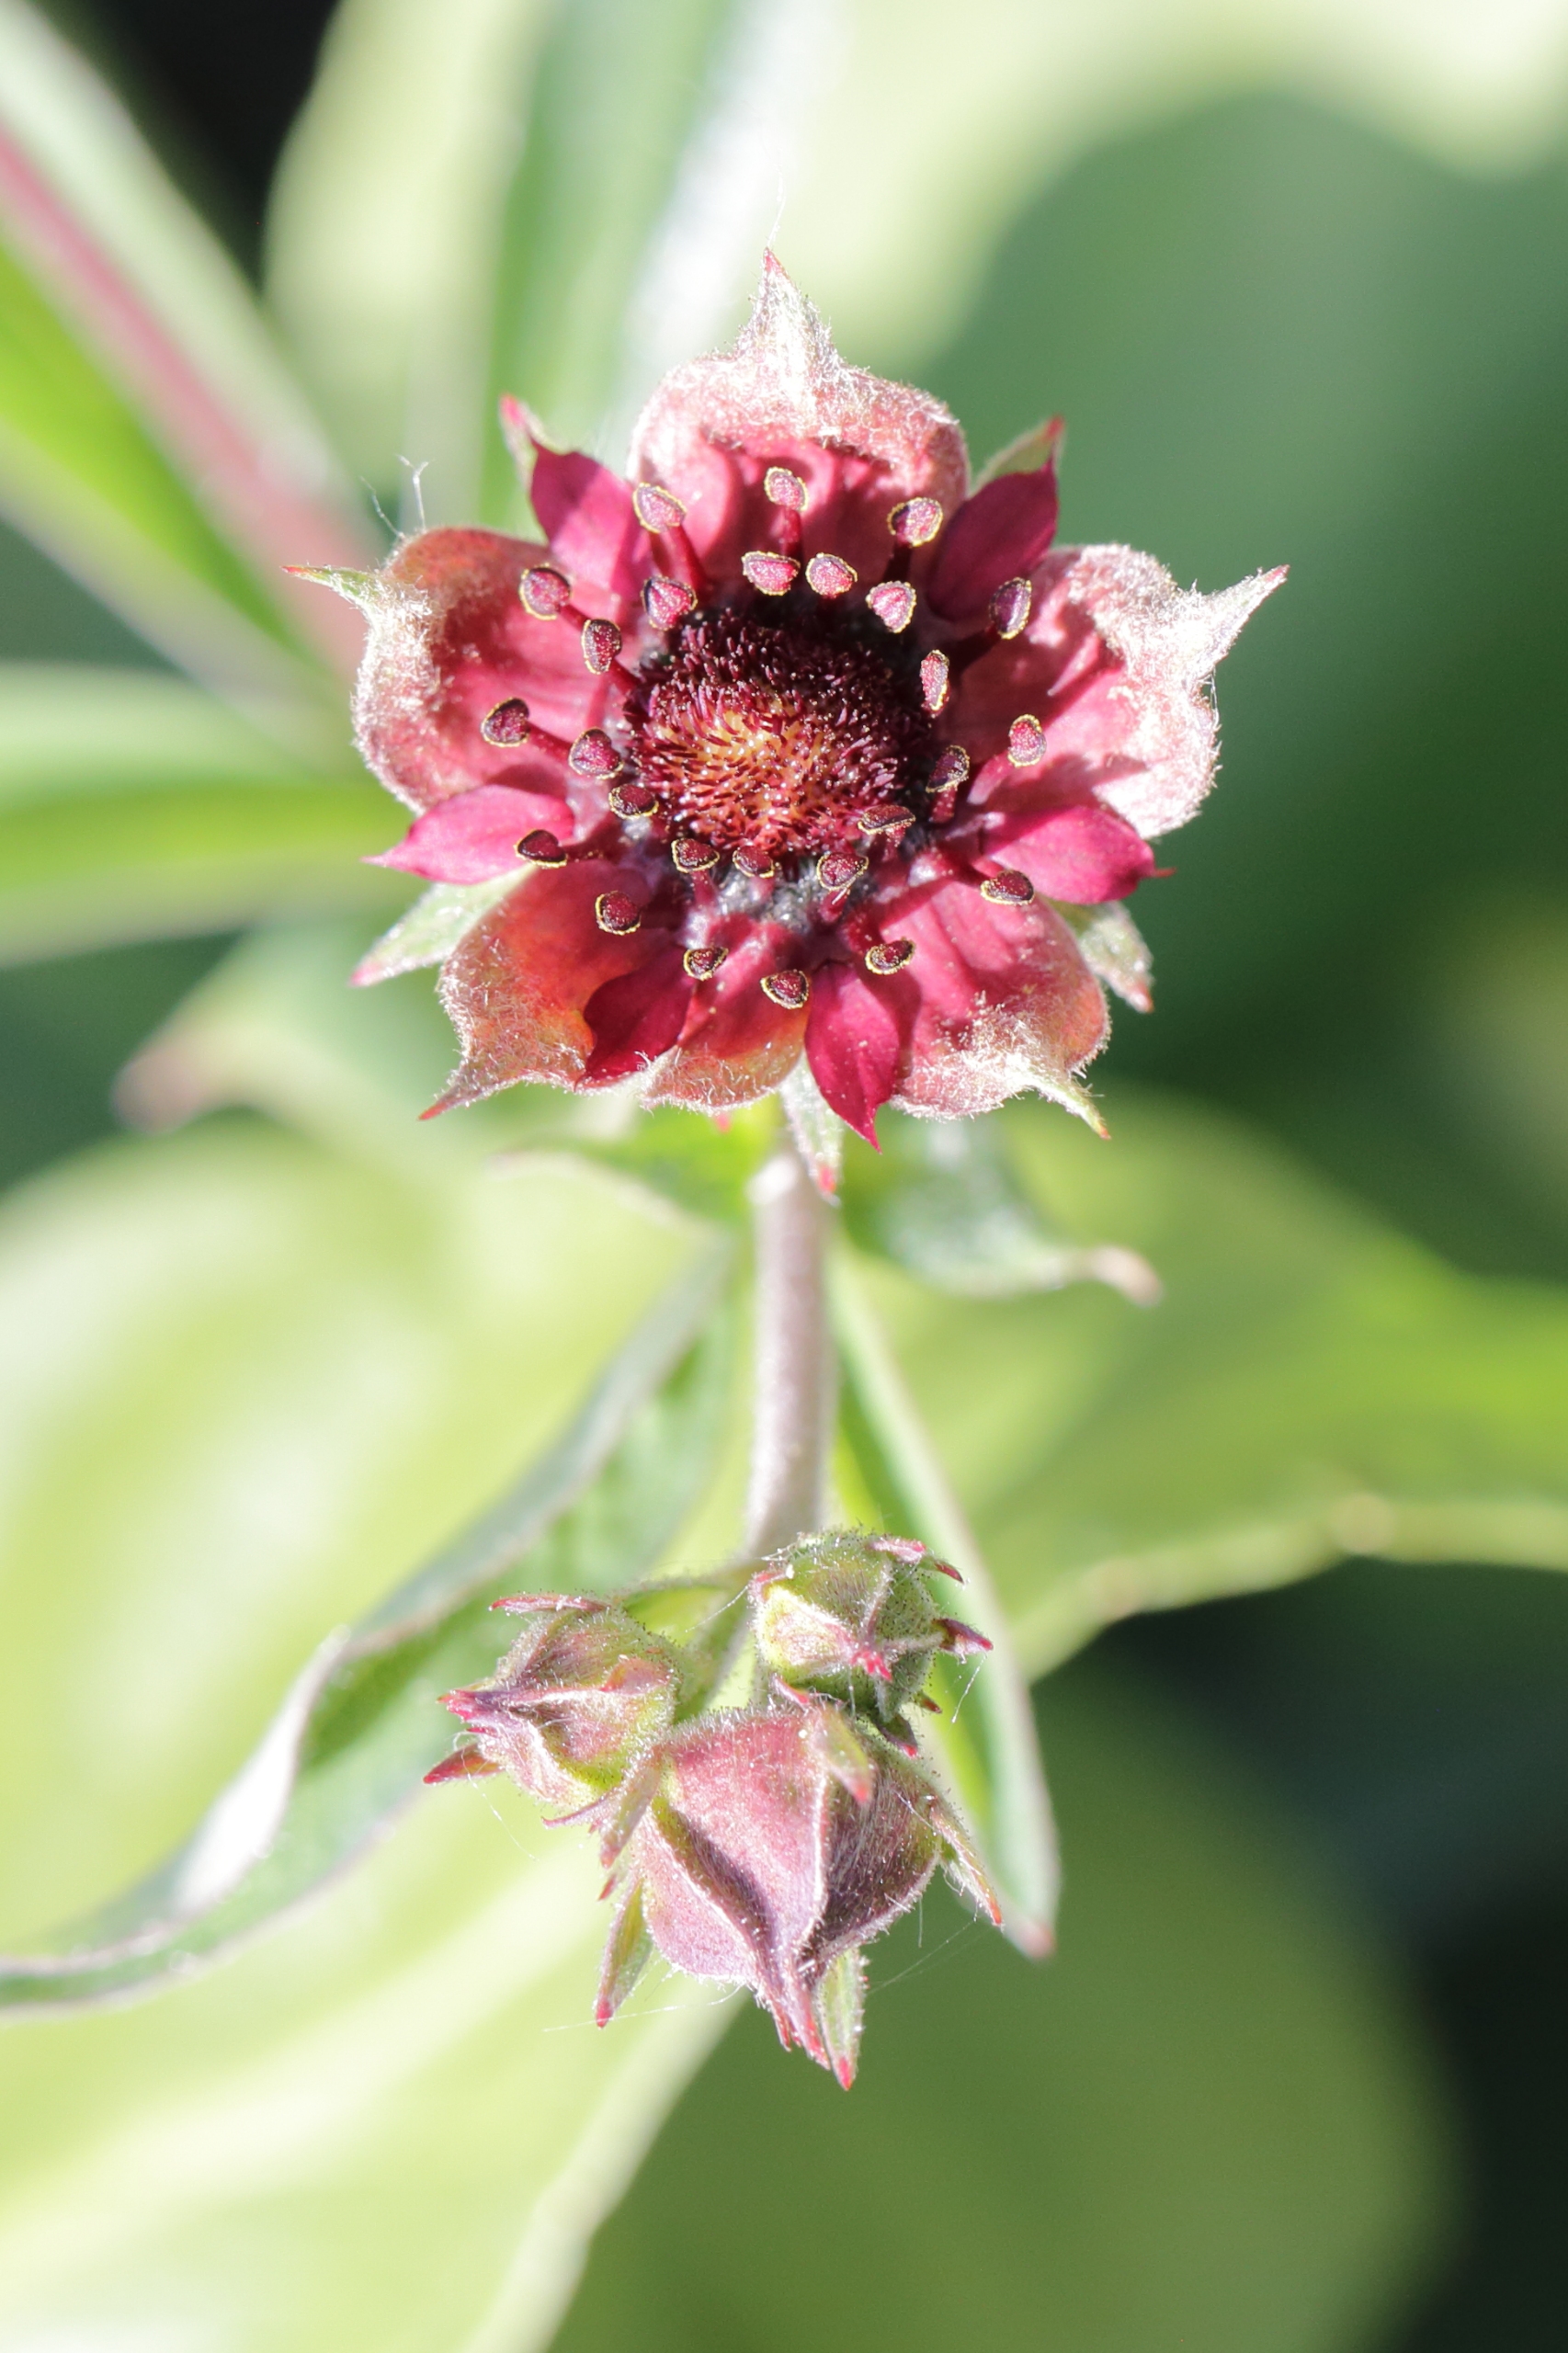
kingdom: Plantae
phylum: Tracheophyta
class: Magnoliopsida
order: Rosales
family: Rosaceae
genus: Comarum
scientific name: Comarum palustre
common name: Kragefod
